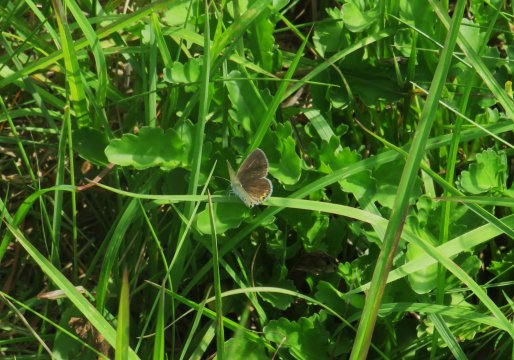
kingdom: Animalia
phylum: Arthropoda
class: Insecta
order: Lepidoptera
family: Lycaenidae
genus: Elkalyce
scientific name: Elkalyce comyntas
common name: Eastern Tailed-Blue
